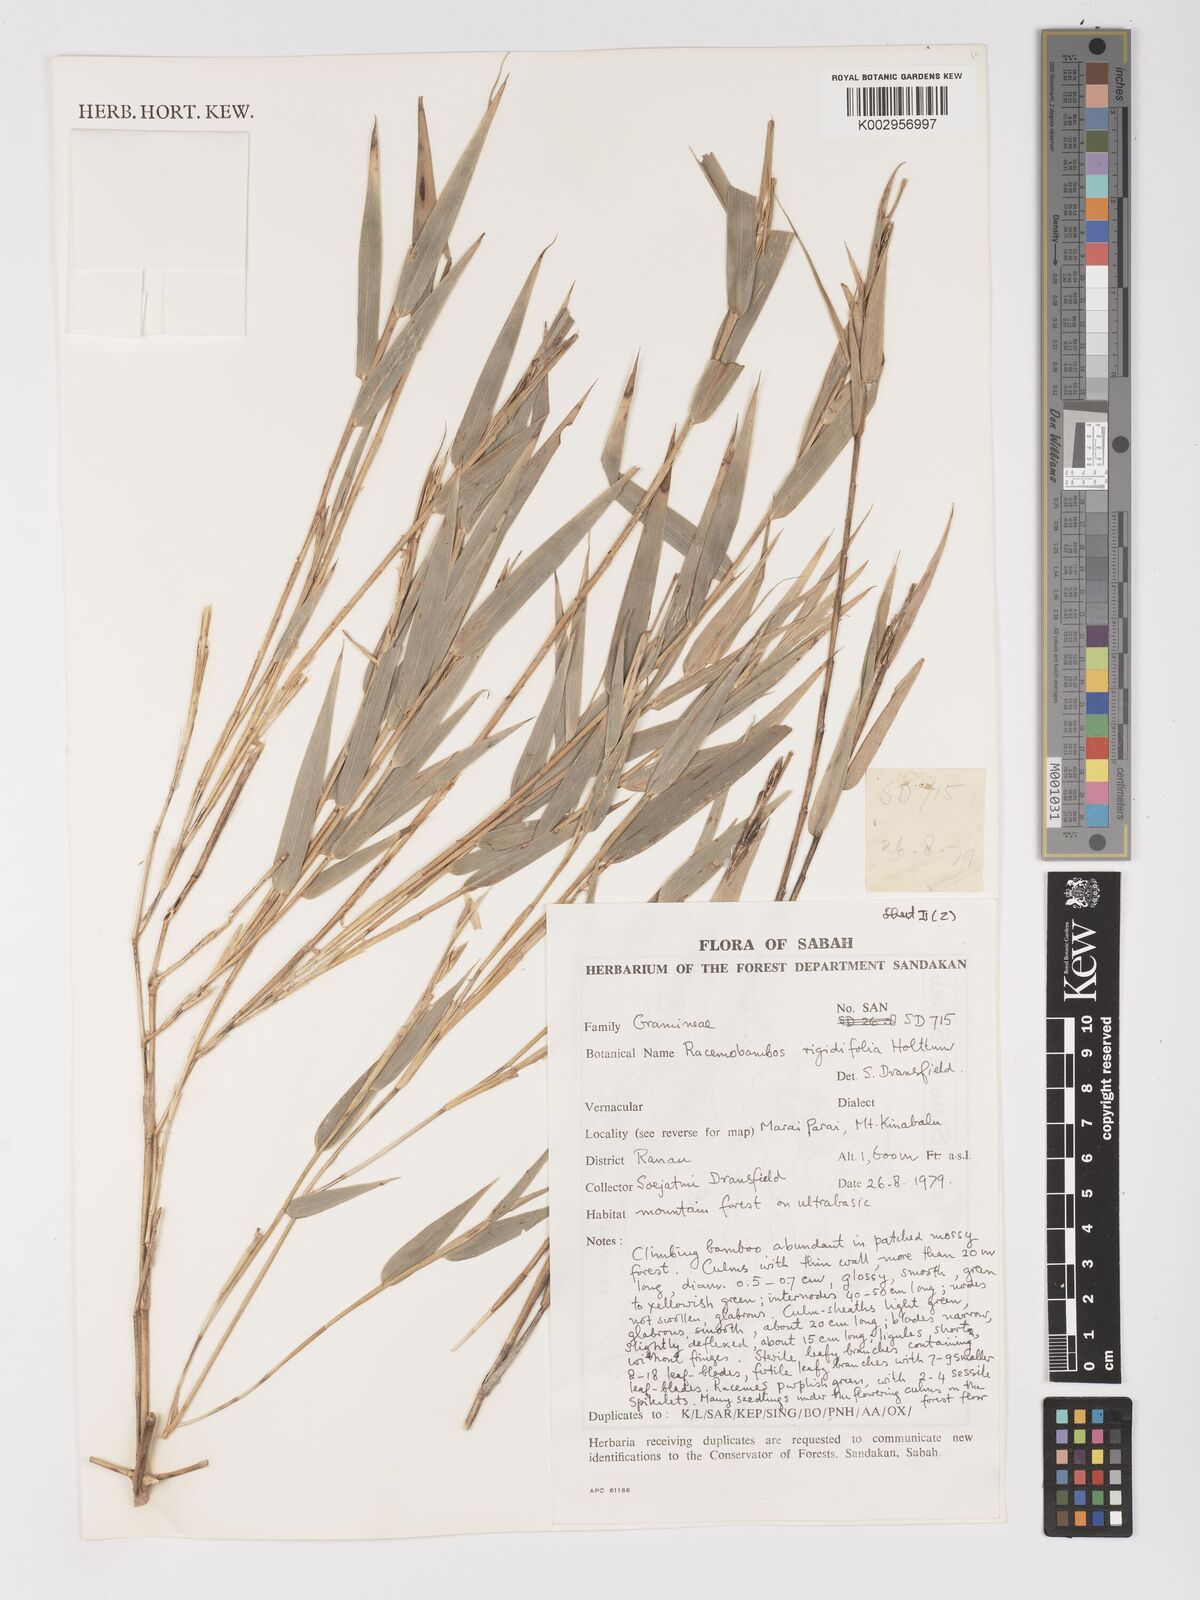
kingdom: Plantae
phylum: Tracheophyta
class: Liliopsida
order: Poales
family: Poaceae
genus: Racemobambos
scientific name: Racemobambos rigidifolia
